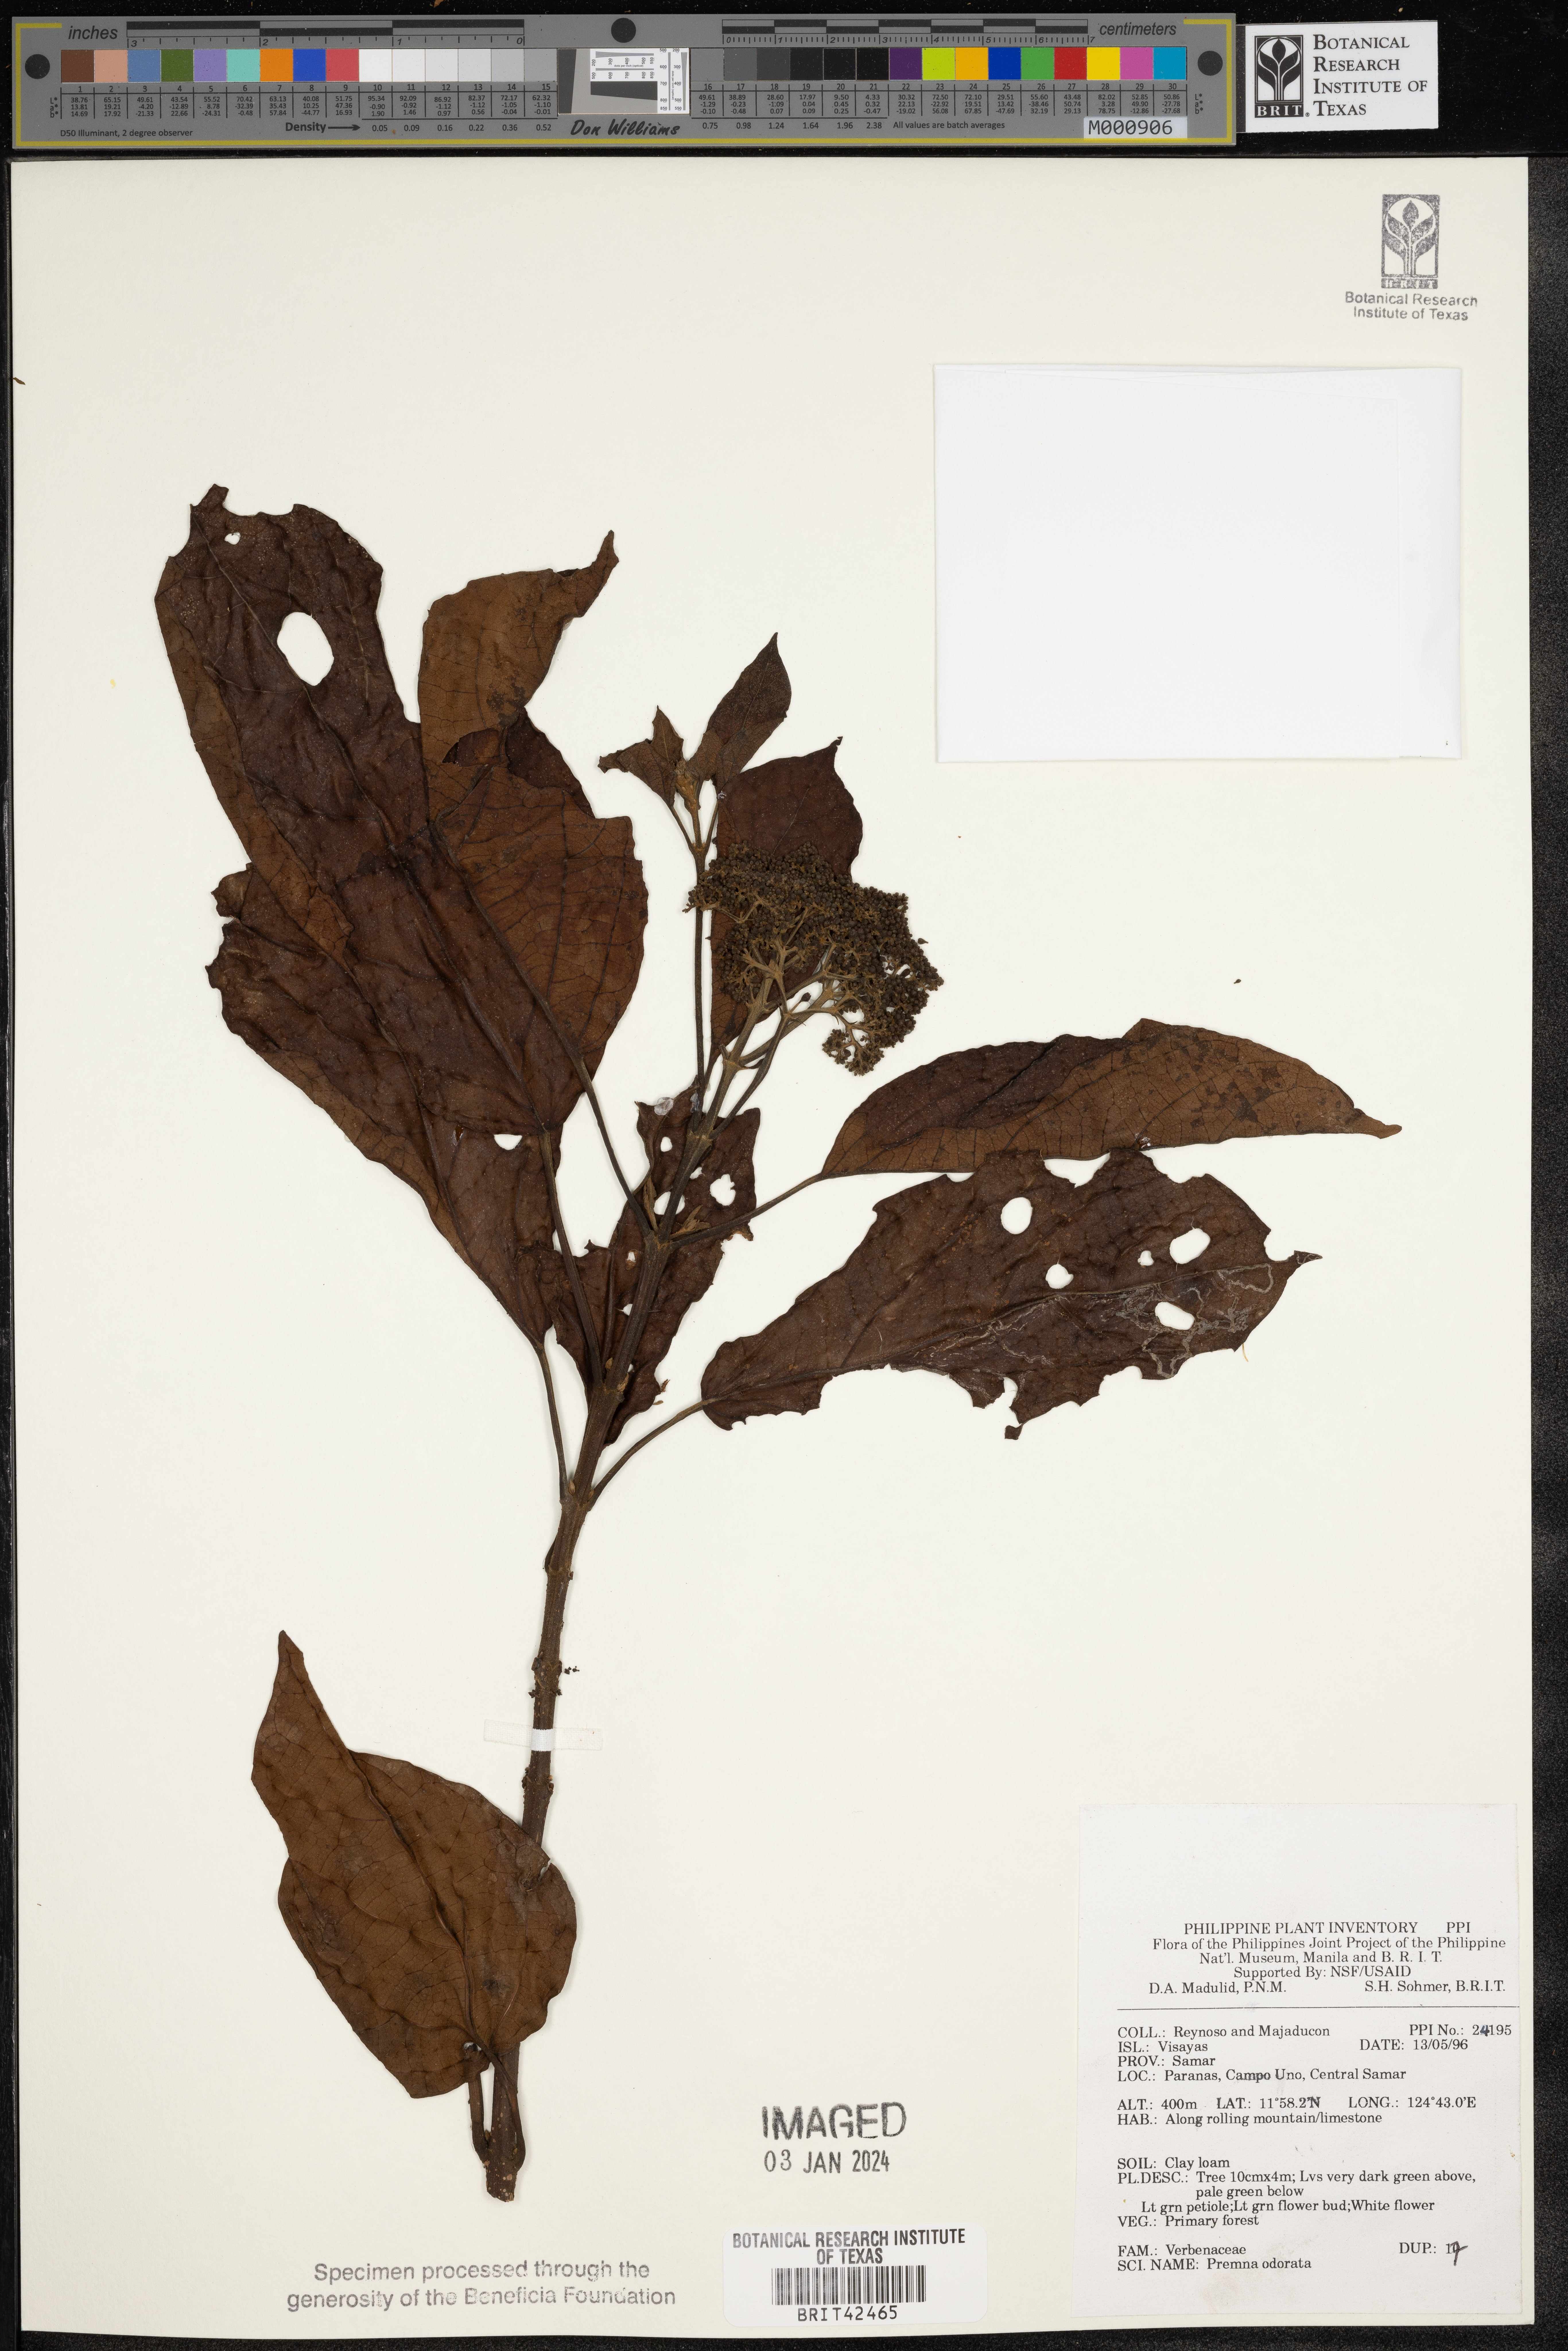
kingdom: Plantae
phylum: Tracheophyta
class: Magnoliopsida
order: Lamiales
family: Lamiaceae
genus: Premna
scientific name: Premna odorata
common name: Fragrant premna
